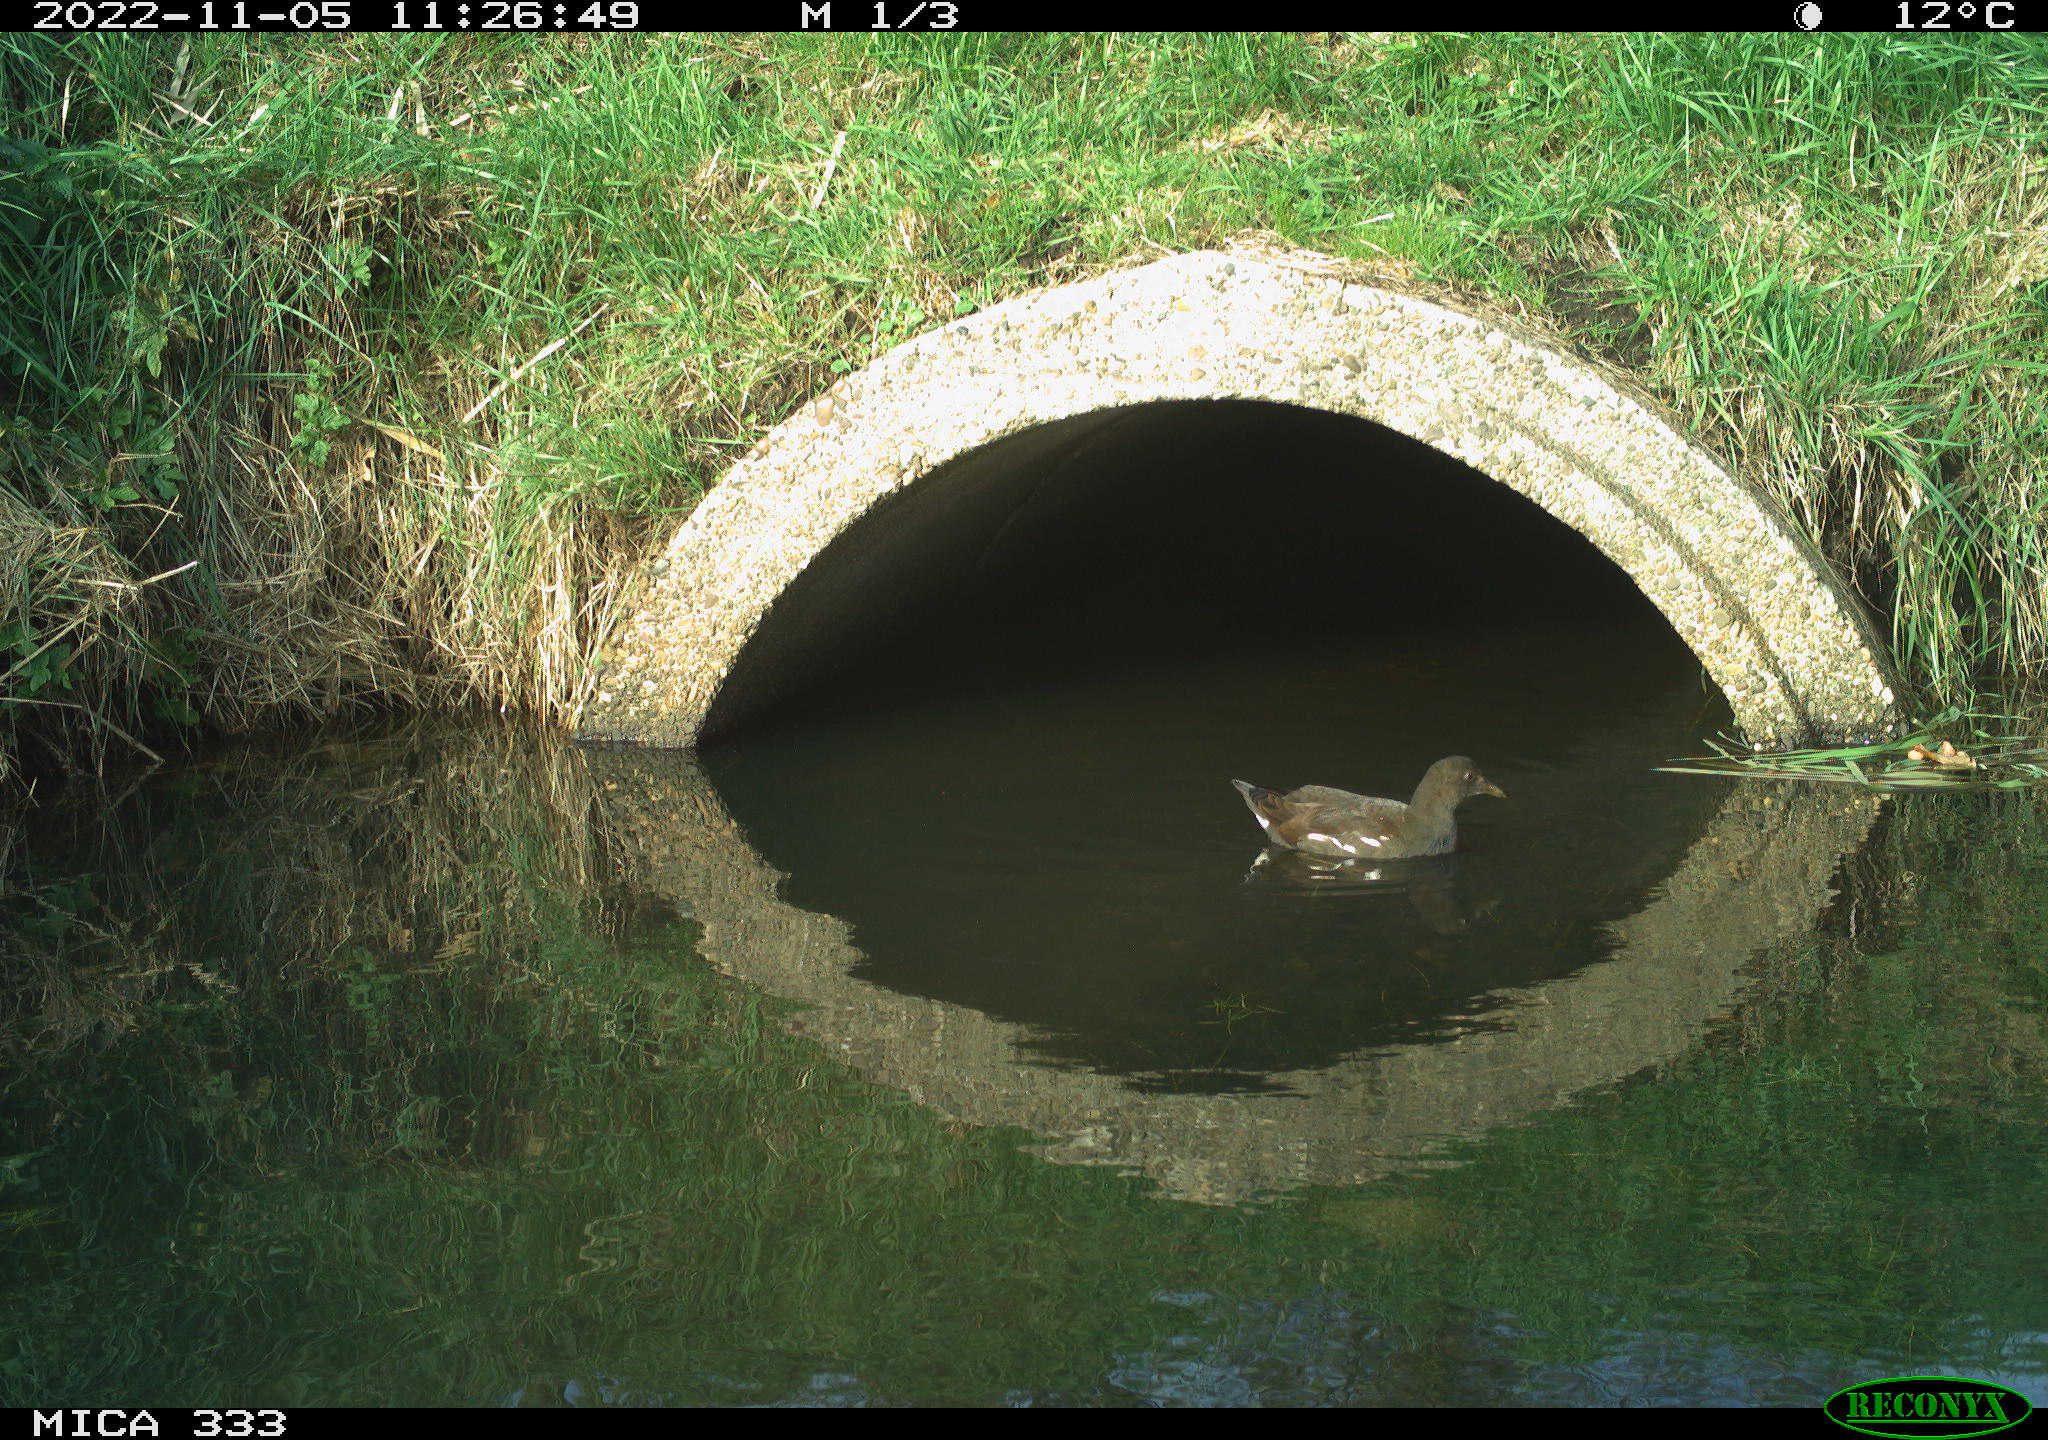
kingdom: Animalia
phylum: Chordata
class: Aves
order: Gruiformes
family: Rallidae
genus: Gallinula
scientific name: Gallinula chloropus
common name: Common moorhen
